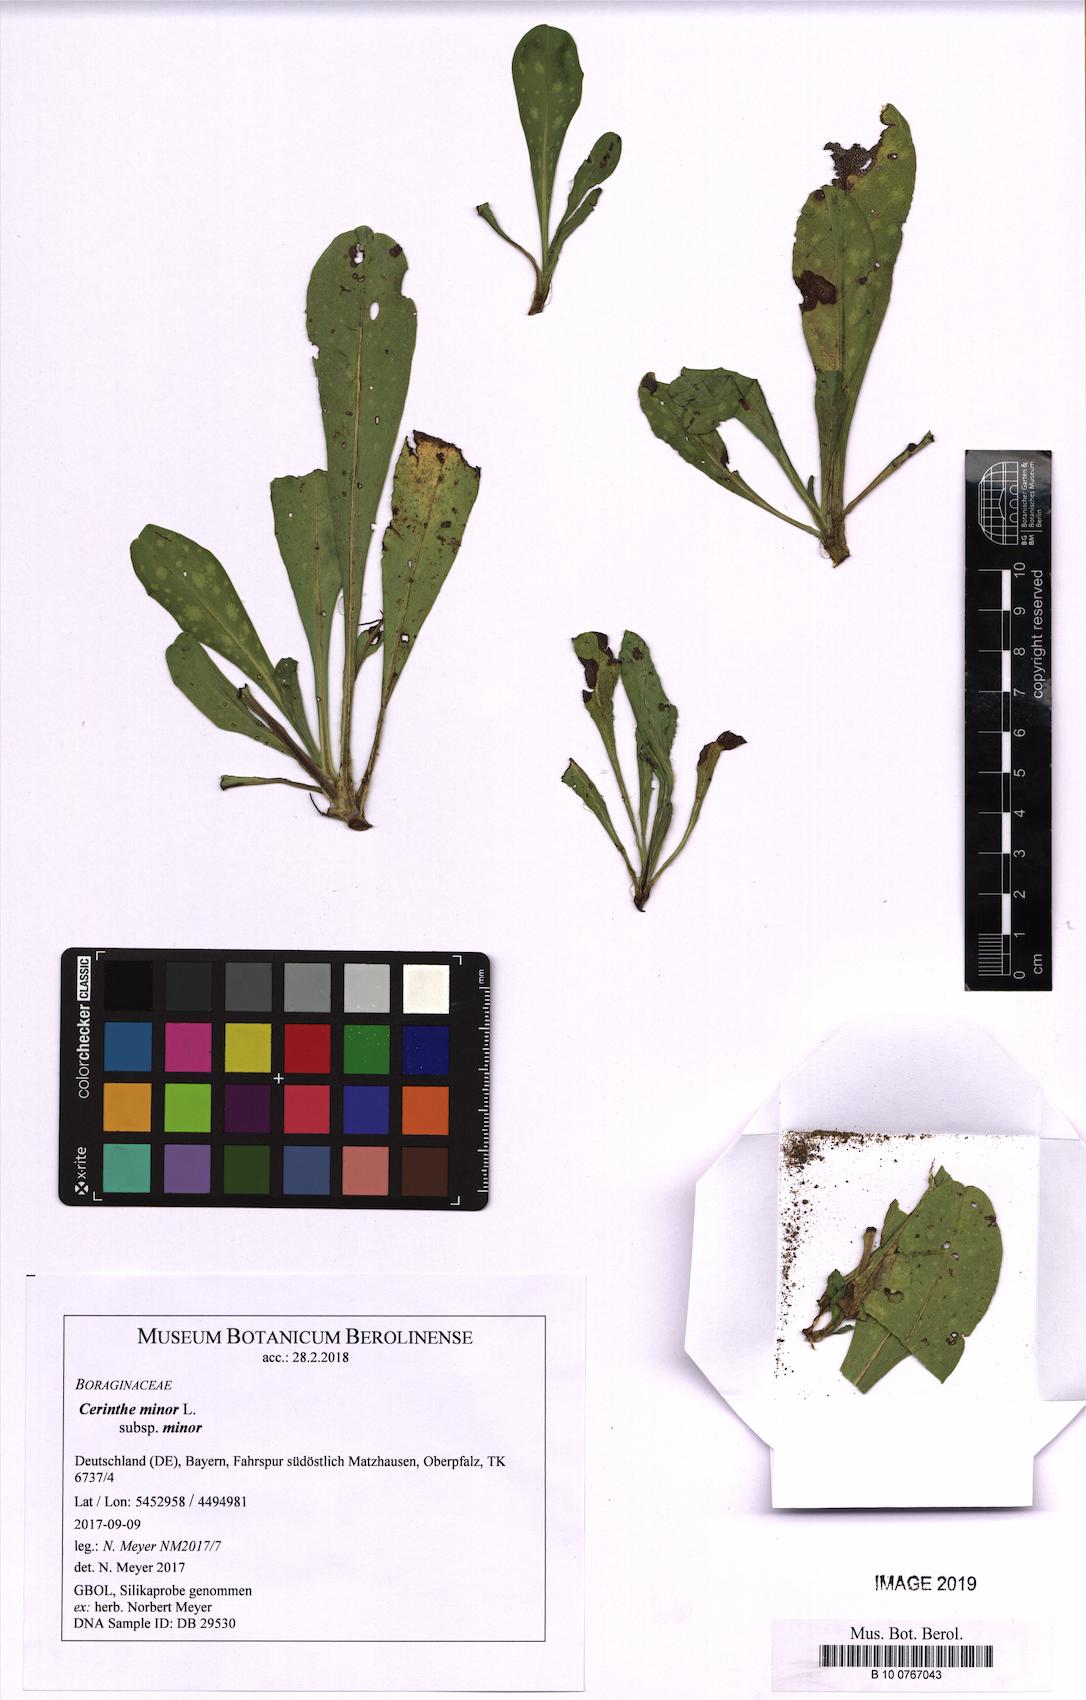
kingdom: Plantae
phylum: Tracheophyta
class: Magnoliopsida
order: Boraginales
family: Boraginaceae
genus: Cerinthe
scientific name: Cerinthe minor
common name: Lesser honeywort
